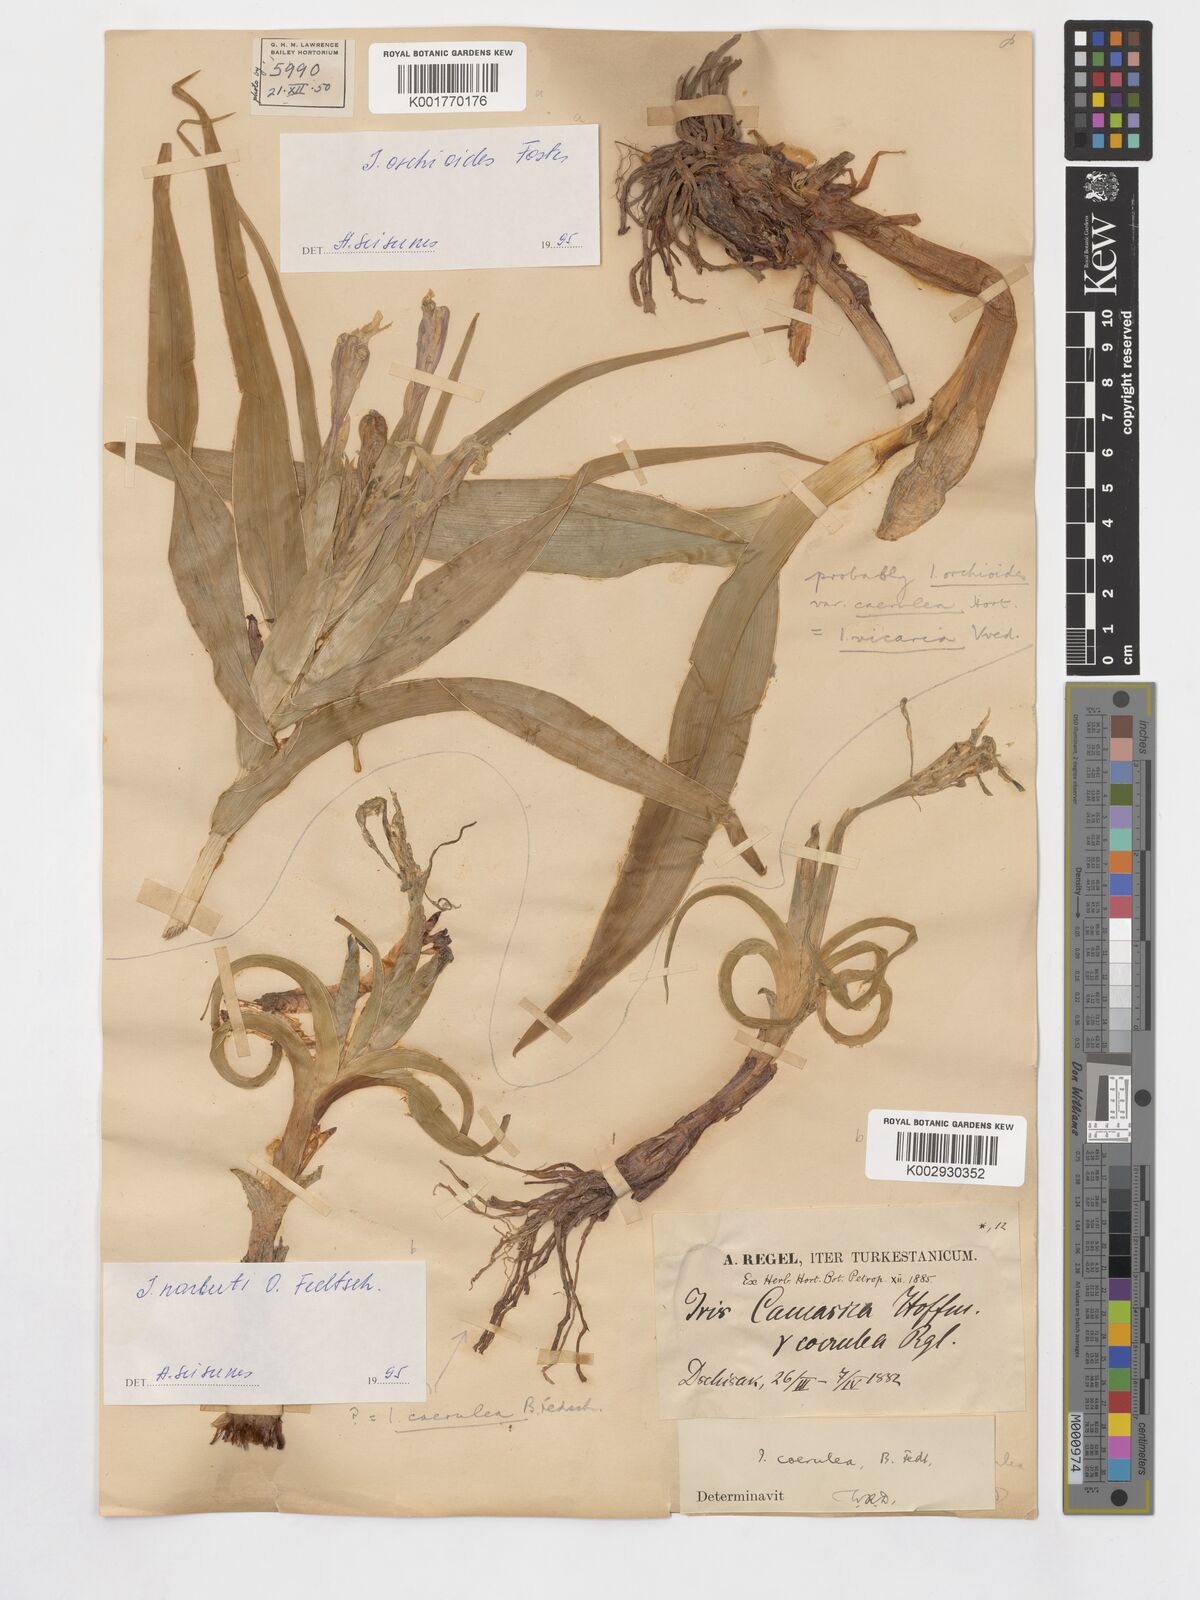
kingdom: Plantae
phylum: Tracheophyta
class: Liliopsida
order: Asparagales
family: Iridaceae
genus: Iris
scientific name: Iris narbutii
